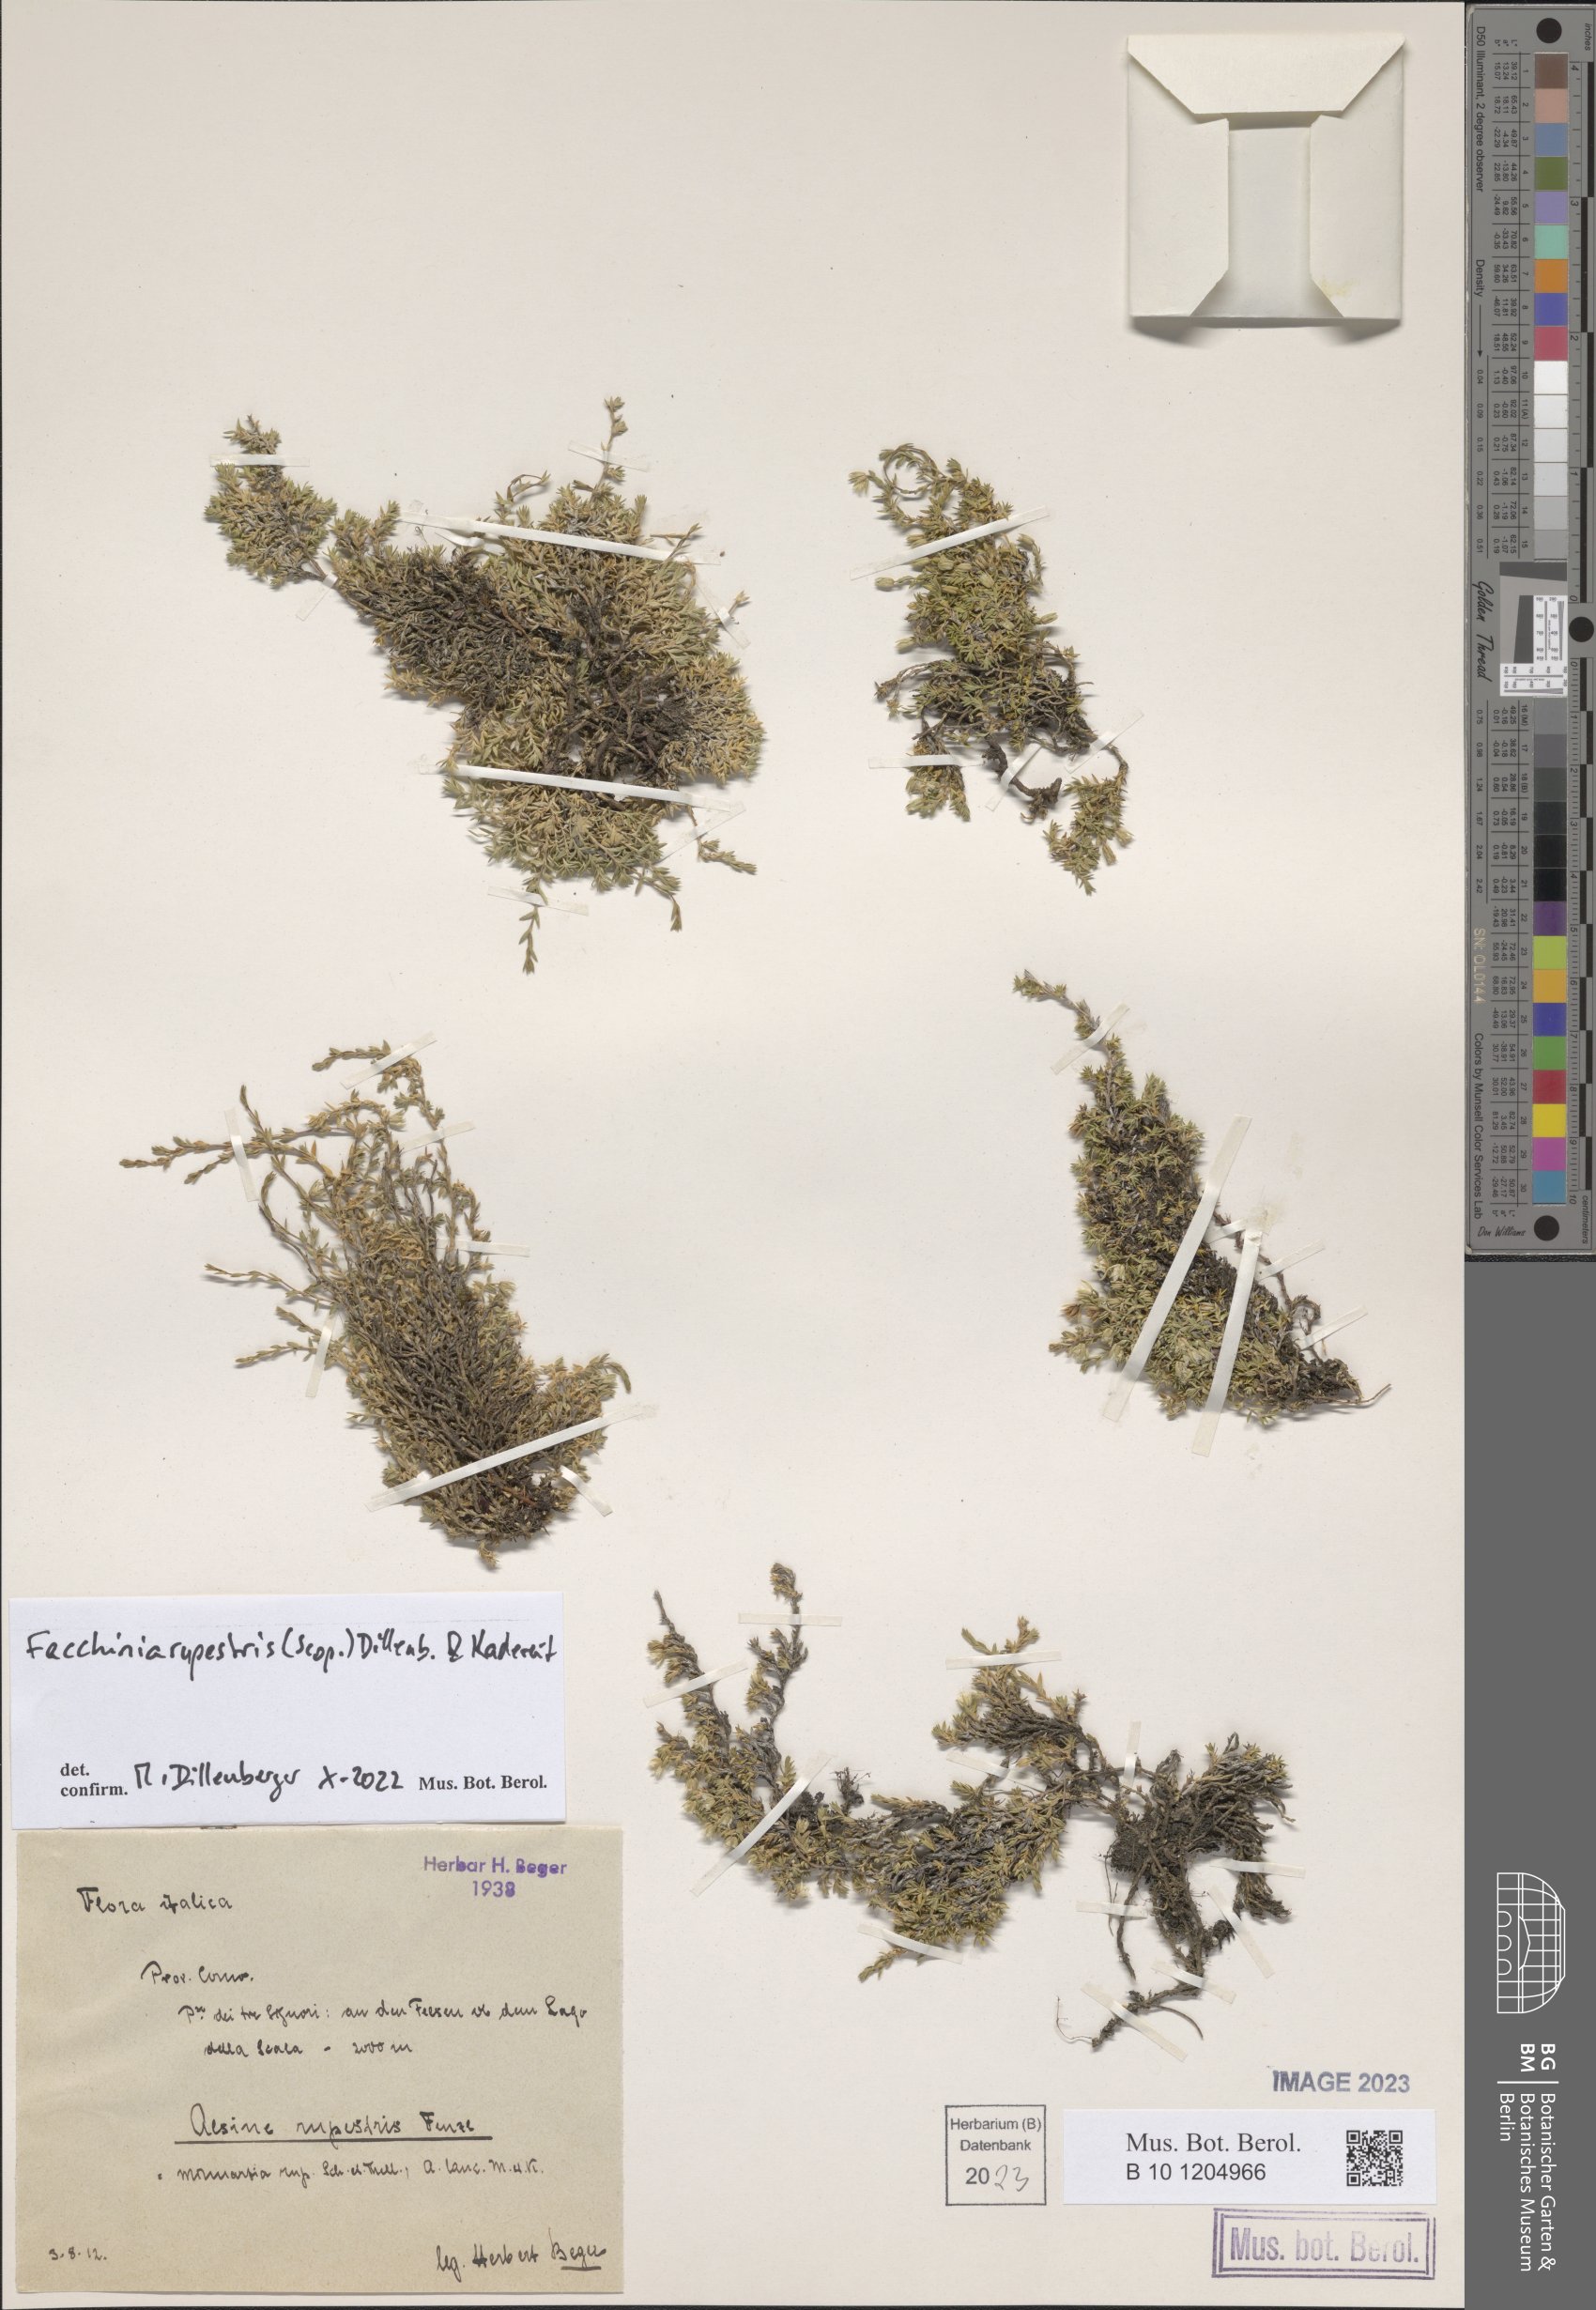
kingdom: Plantae
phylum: Tracheophyta
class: Magnoliopsida
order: Caryophyllales
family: Caryophyllaceae
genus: Facchinia
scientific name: Facchinia rupestris
